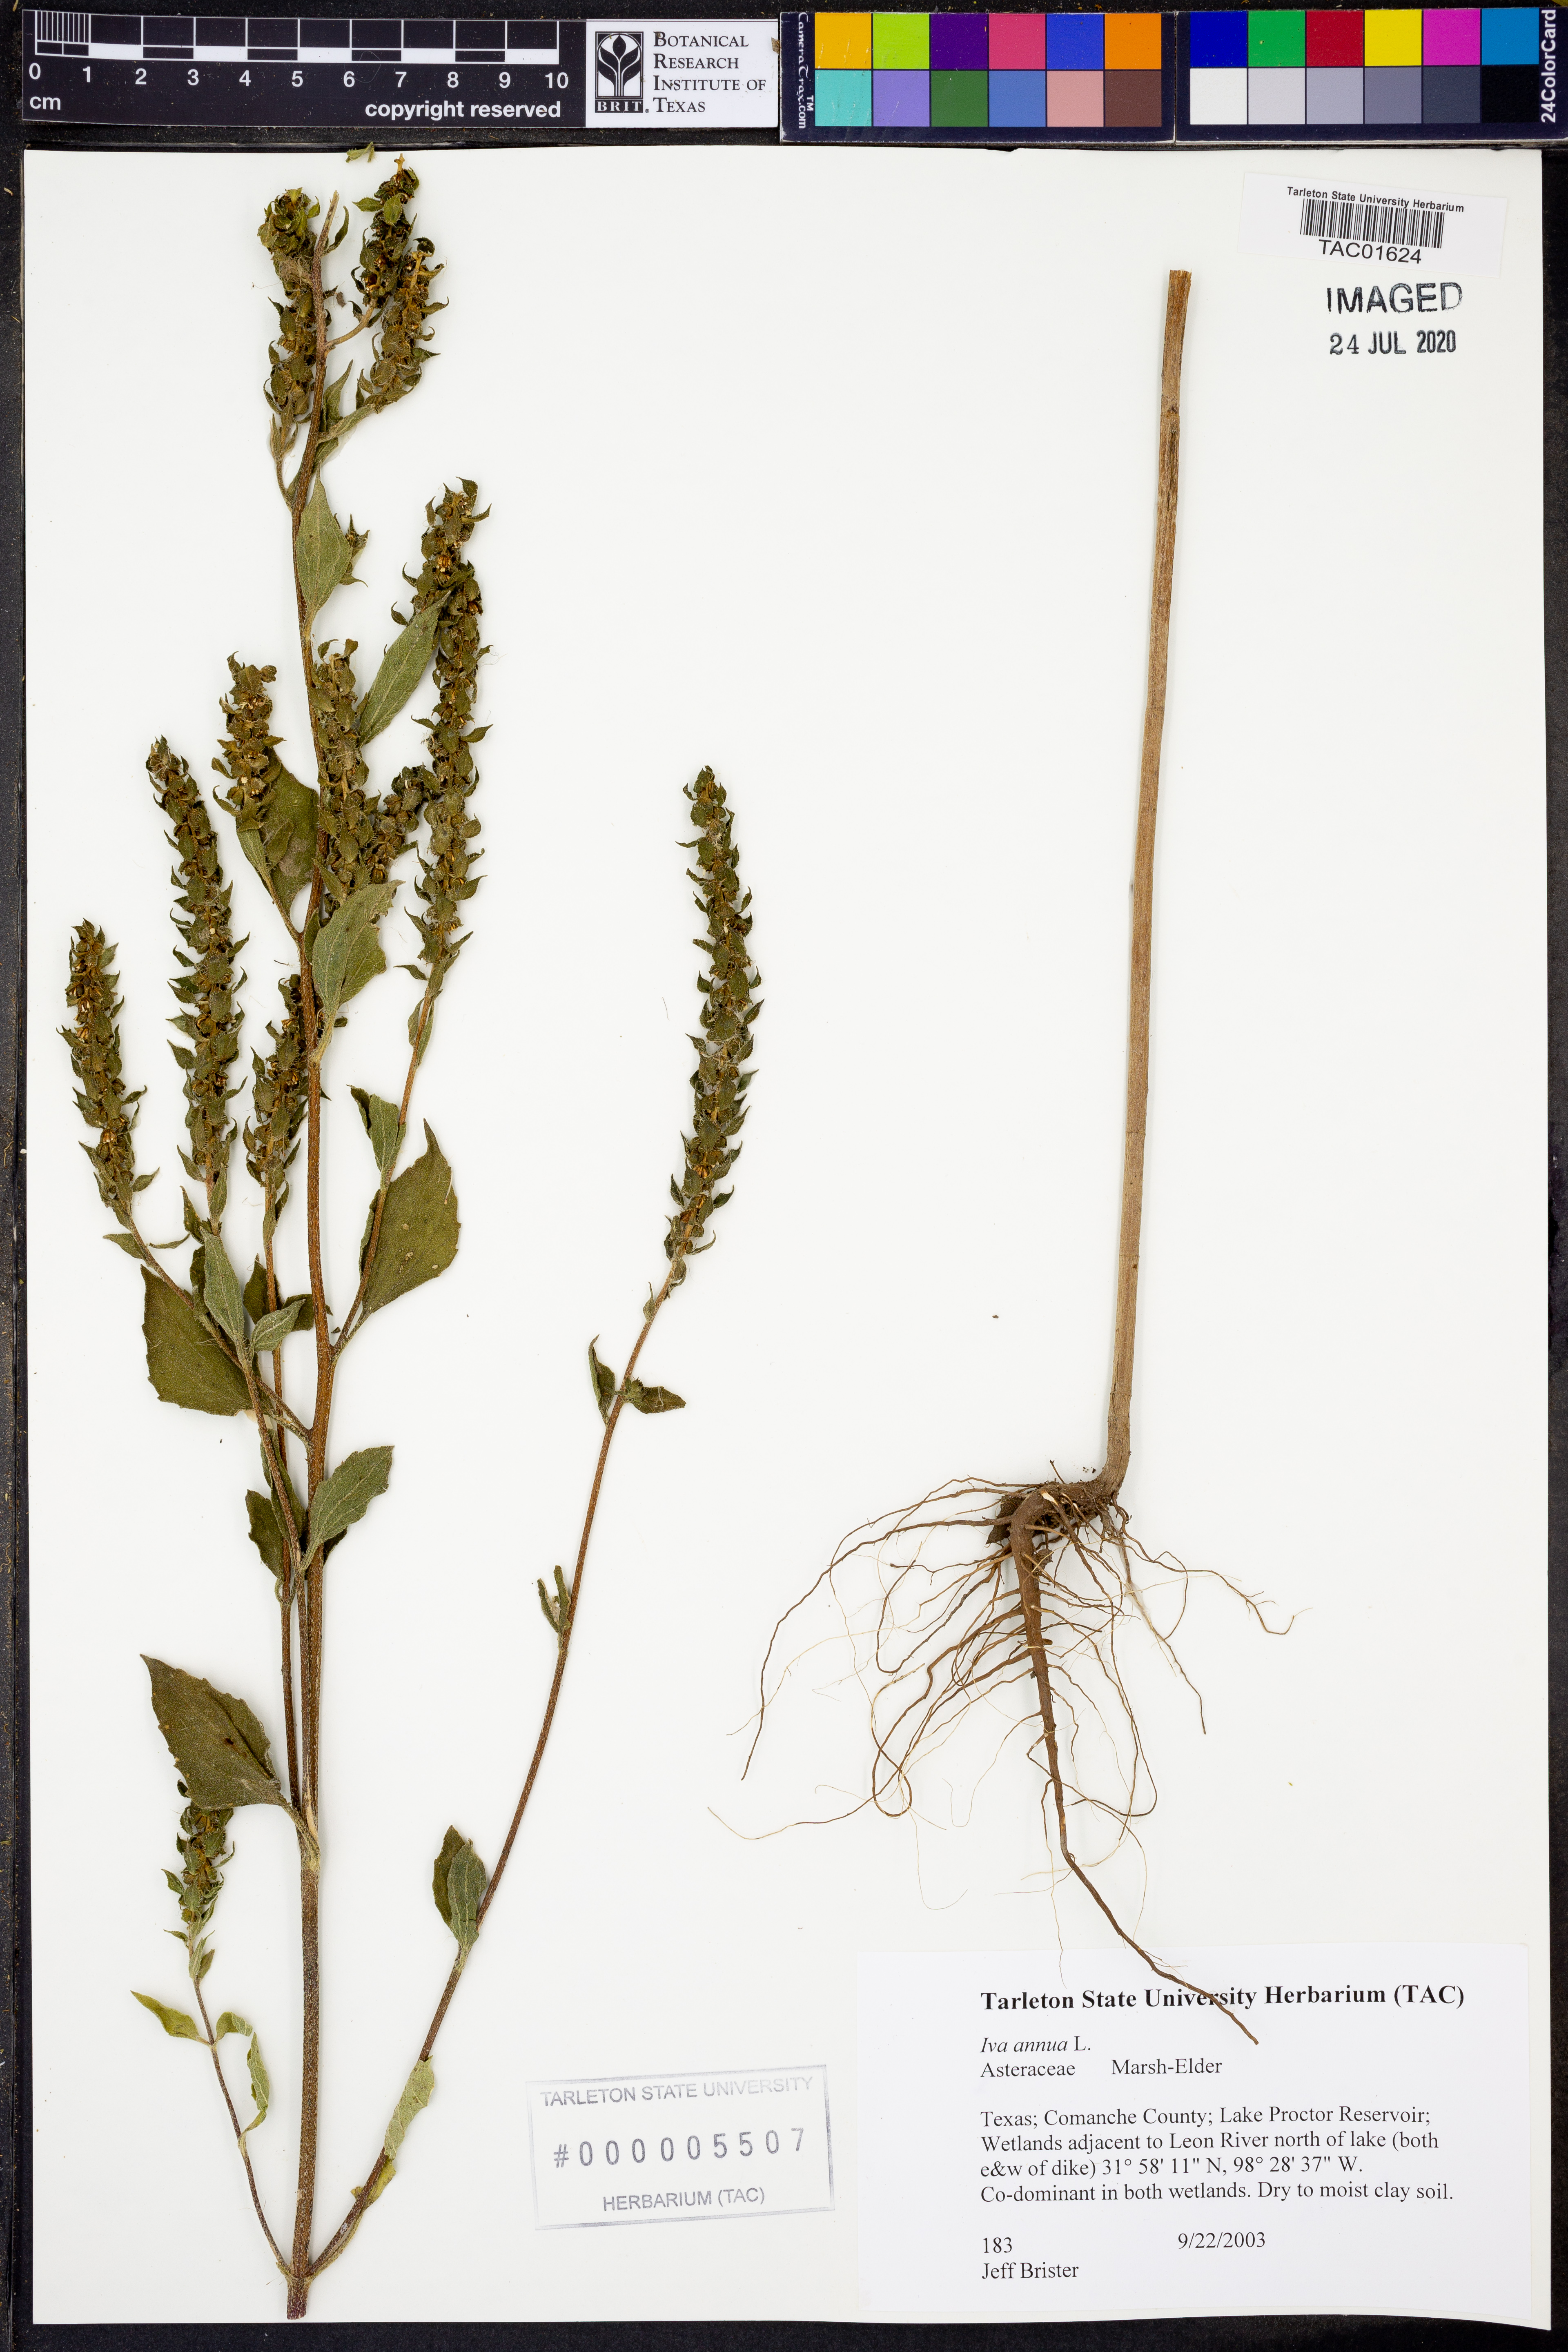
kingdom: Plantae
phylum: Tracheophyta
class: Magnoliopsida
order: Asterales
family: Asteraceae
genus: Iva
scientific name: Iva annua
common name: Marsh-elder
